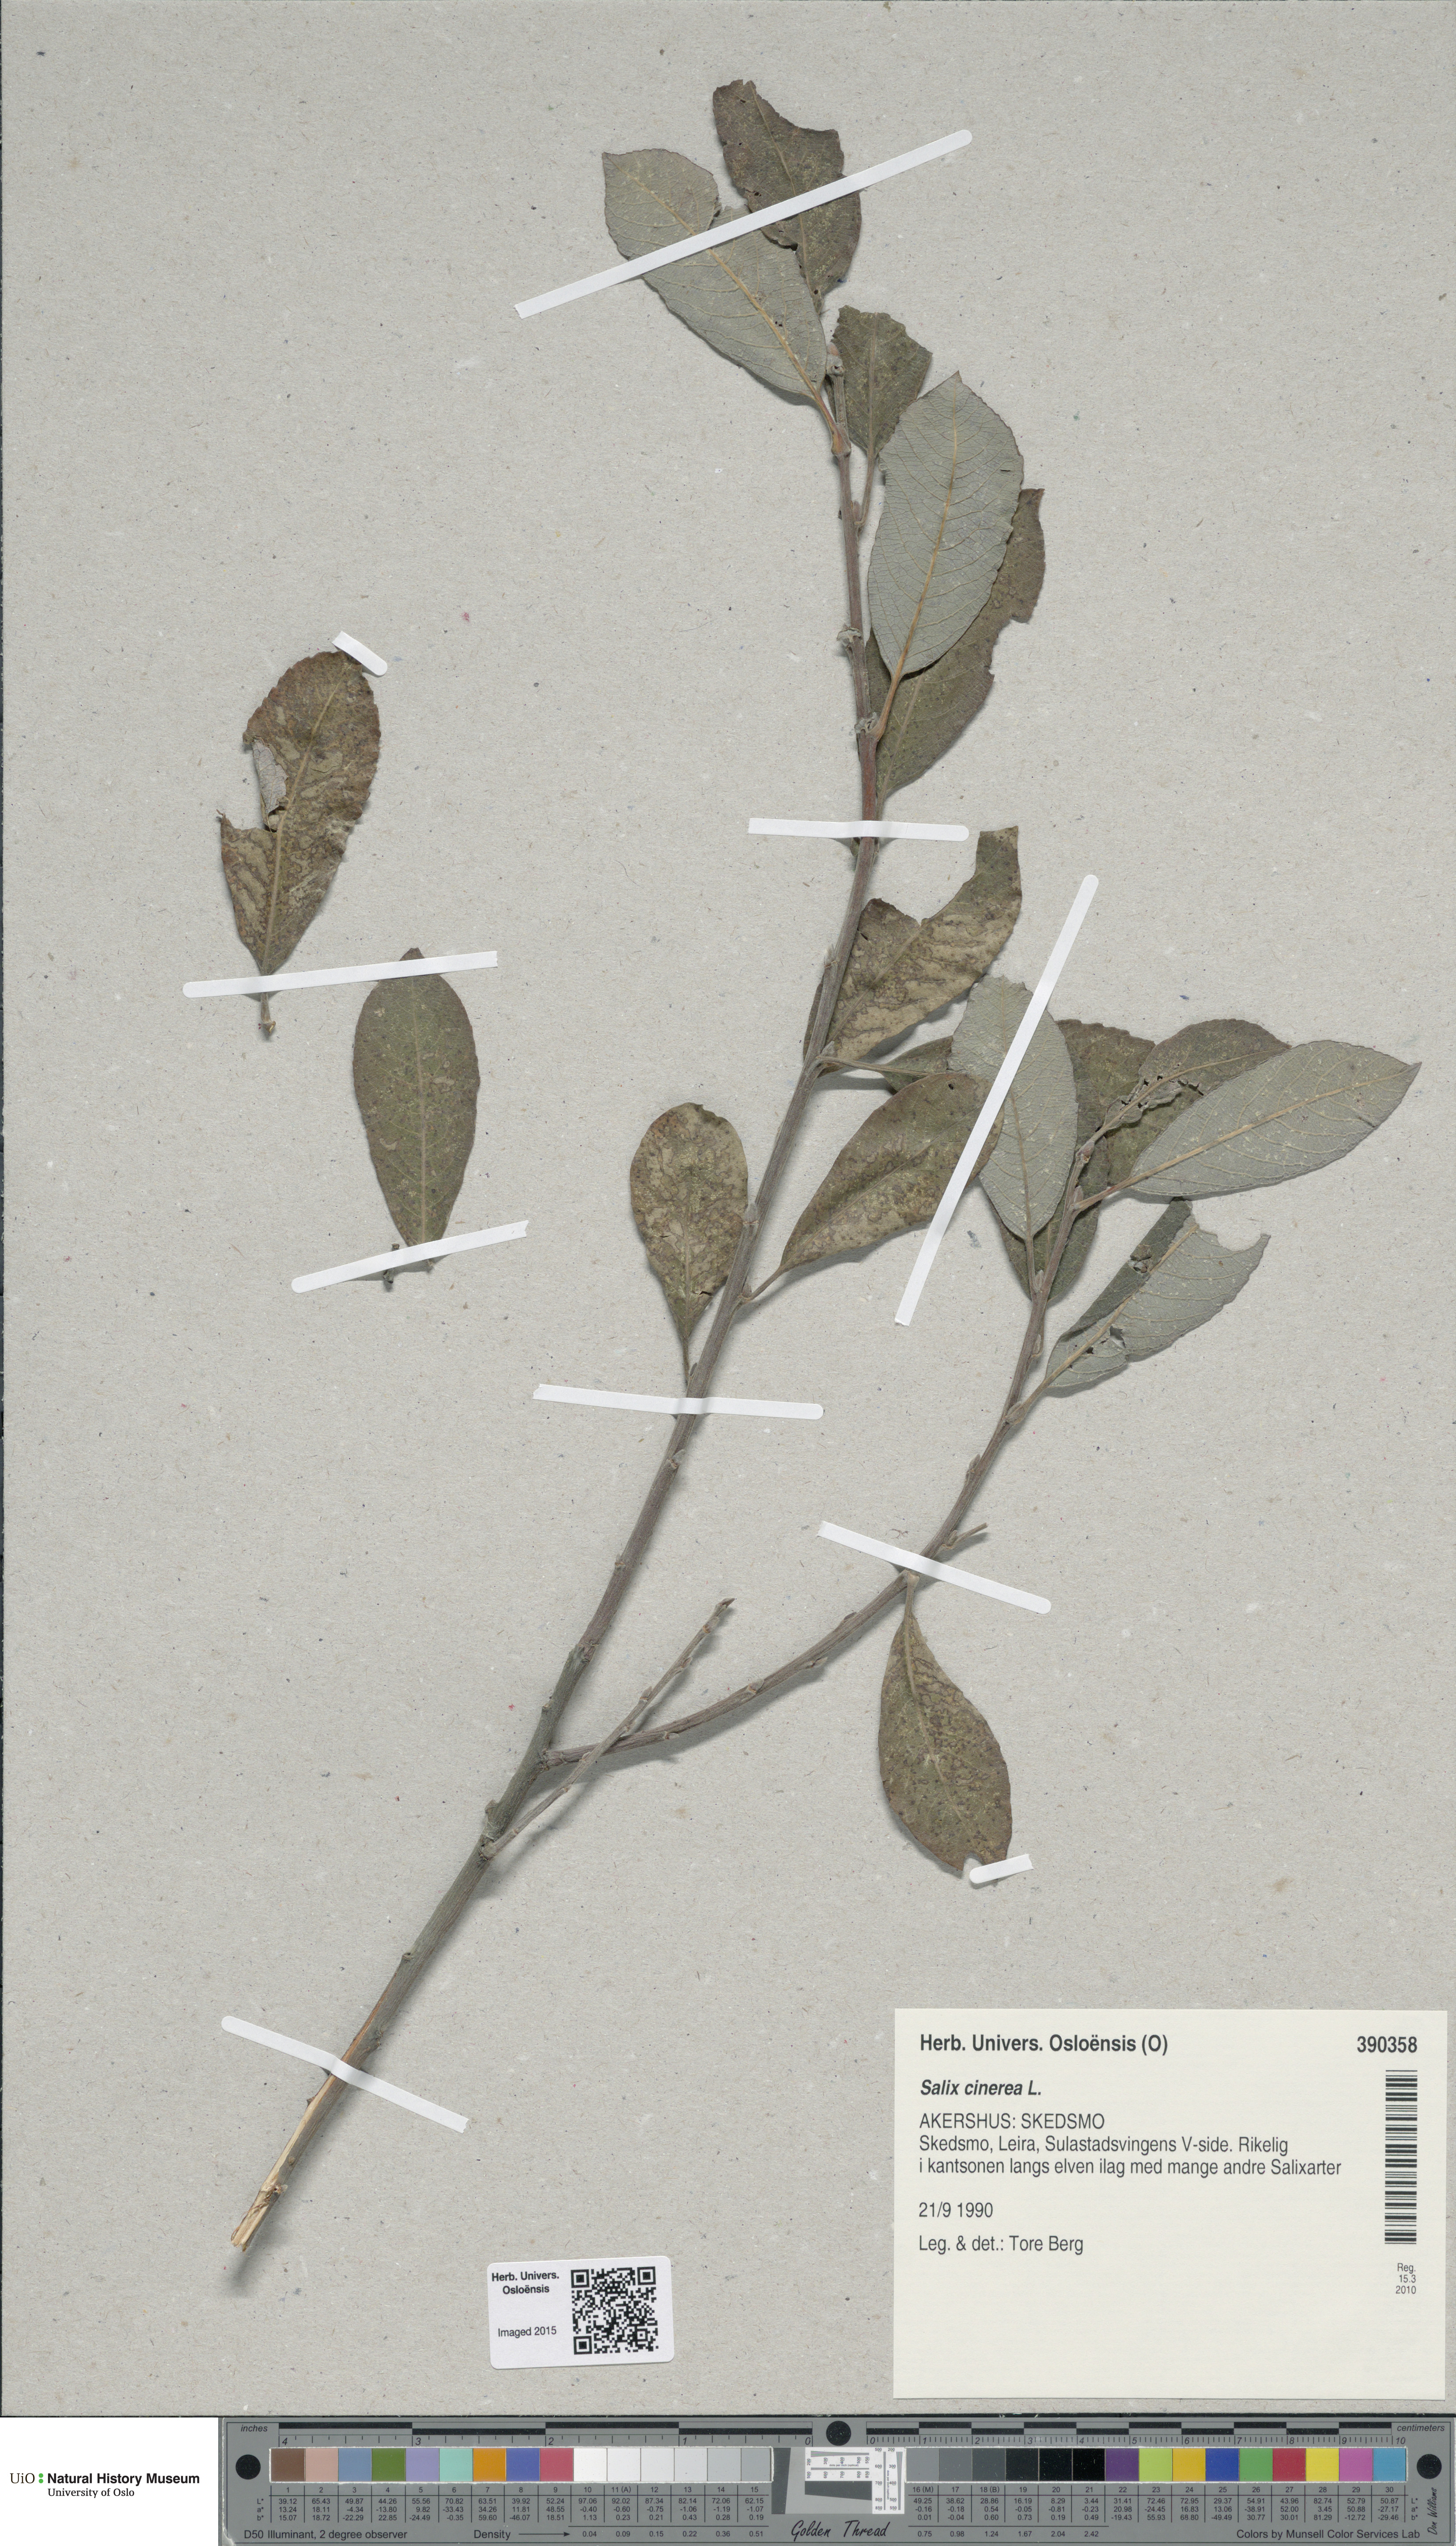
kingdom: Plantae
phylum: Tracheophyta
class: Magnoliopsida
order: Malpighiales
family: Salicaceae
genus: Salix
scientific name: Salix cinerea
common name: Common sallow
